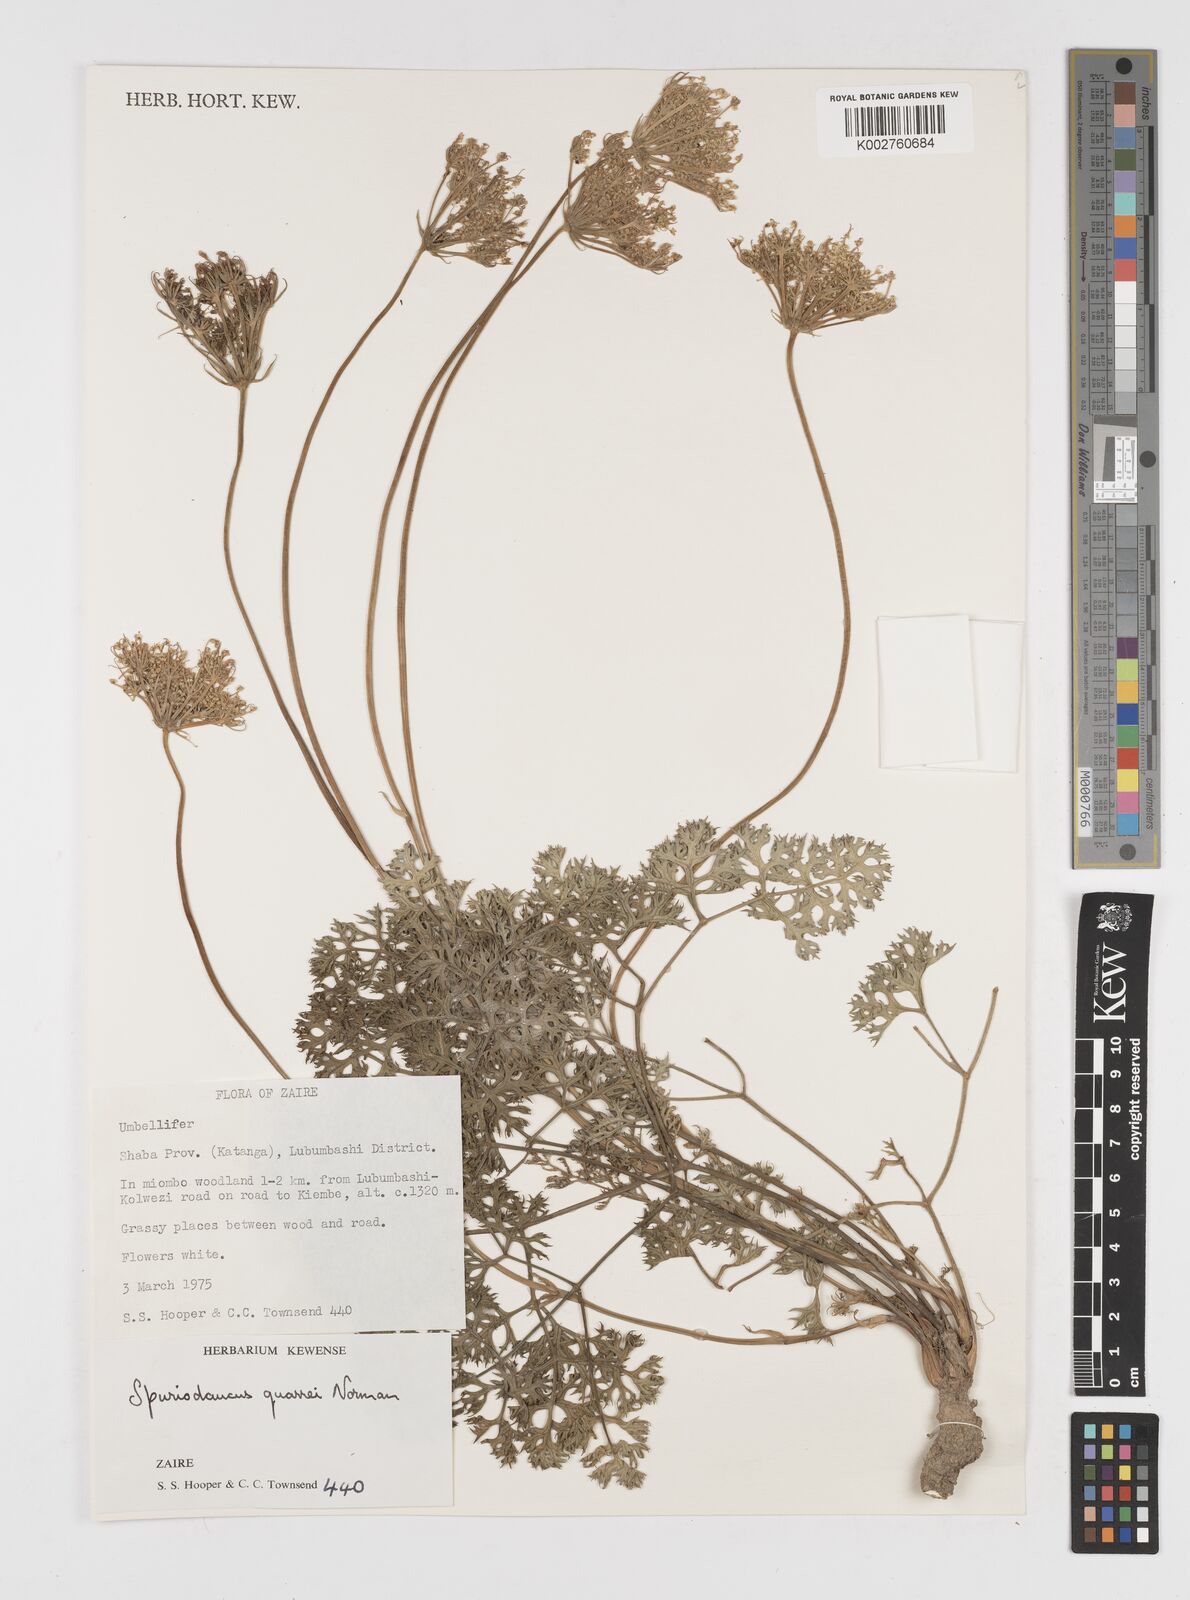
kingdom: Plantae
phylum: Tracheophyta
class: Magnoliopsida
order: Apiales
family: Apiaceae
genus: Physotrichia
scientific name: Physotrichia Spuriodaucus quarrei
